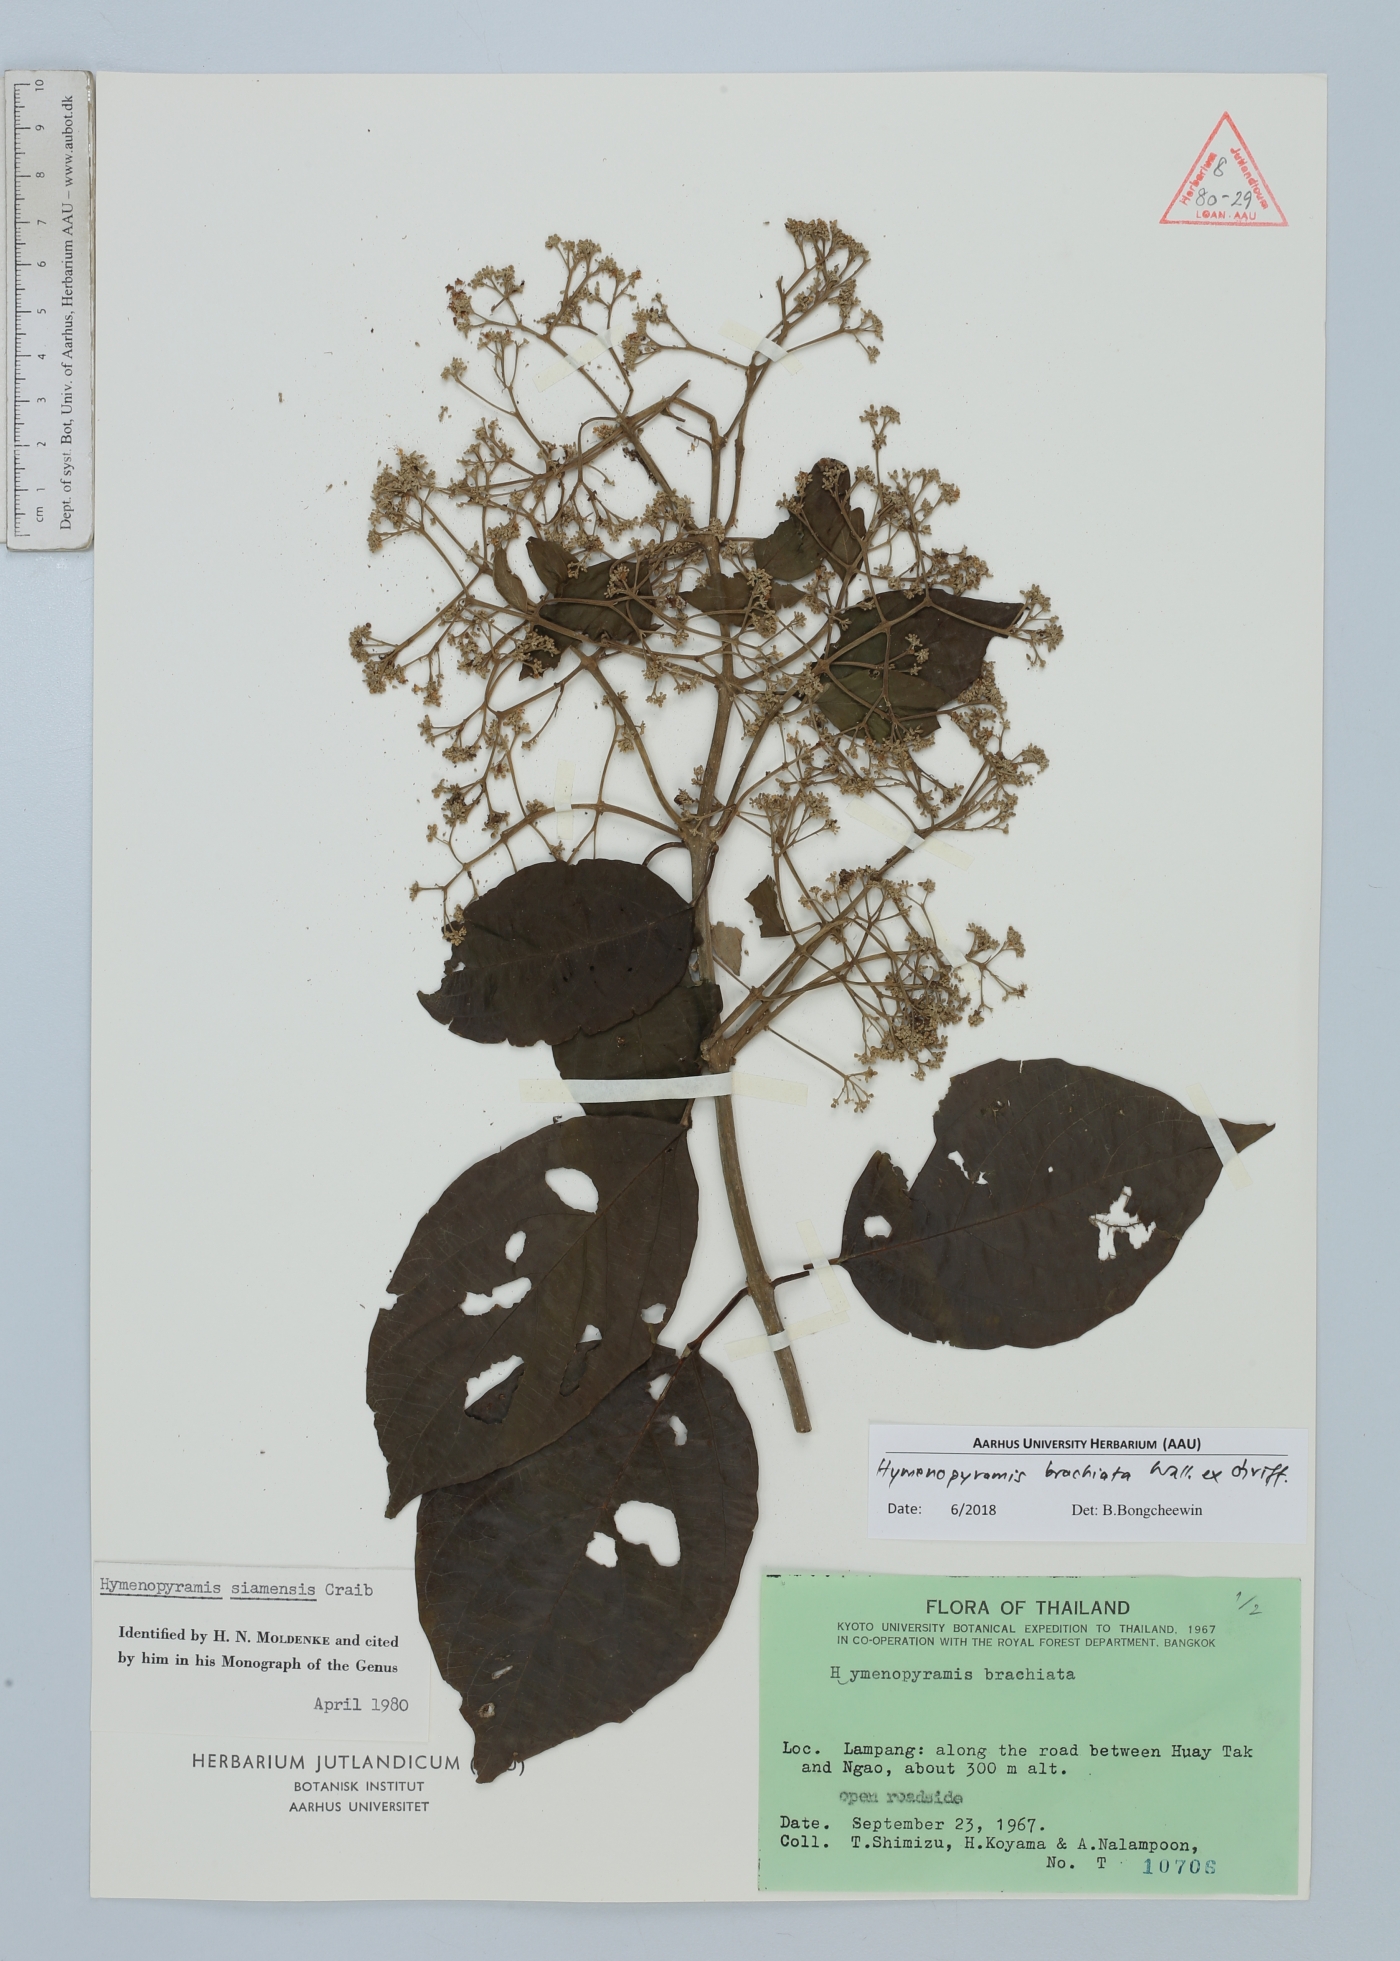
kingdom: Plantae
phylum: Tracheophyta
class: Magnoliopsida
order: Lamiales
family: Lamiaceae
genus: Hymenopyramis
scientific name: Hymenopyramis brachiata
